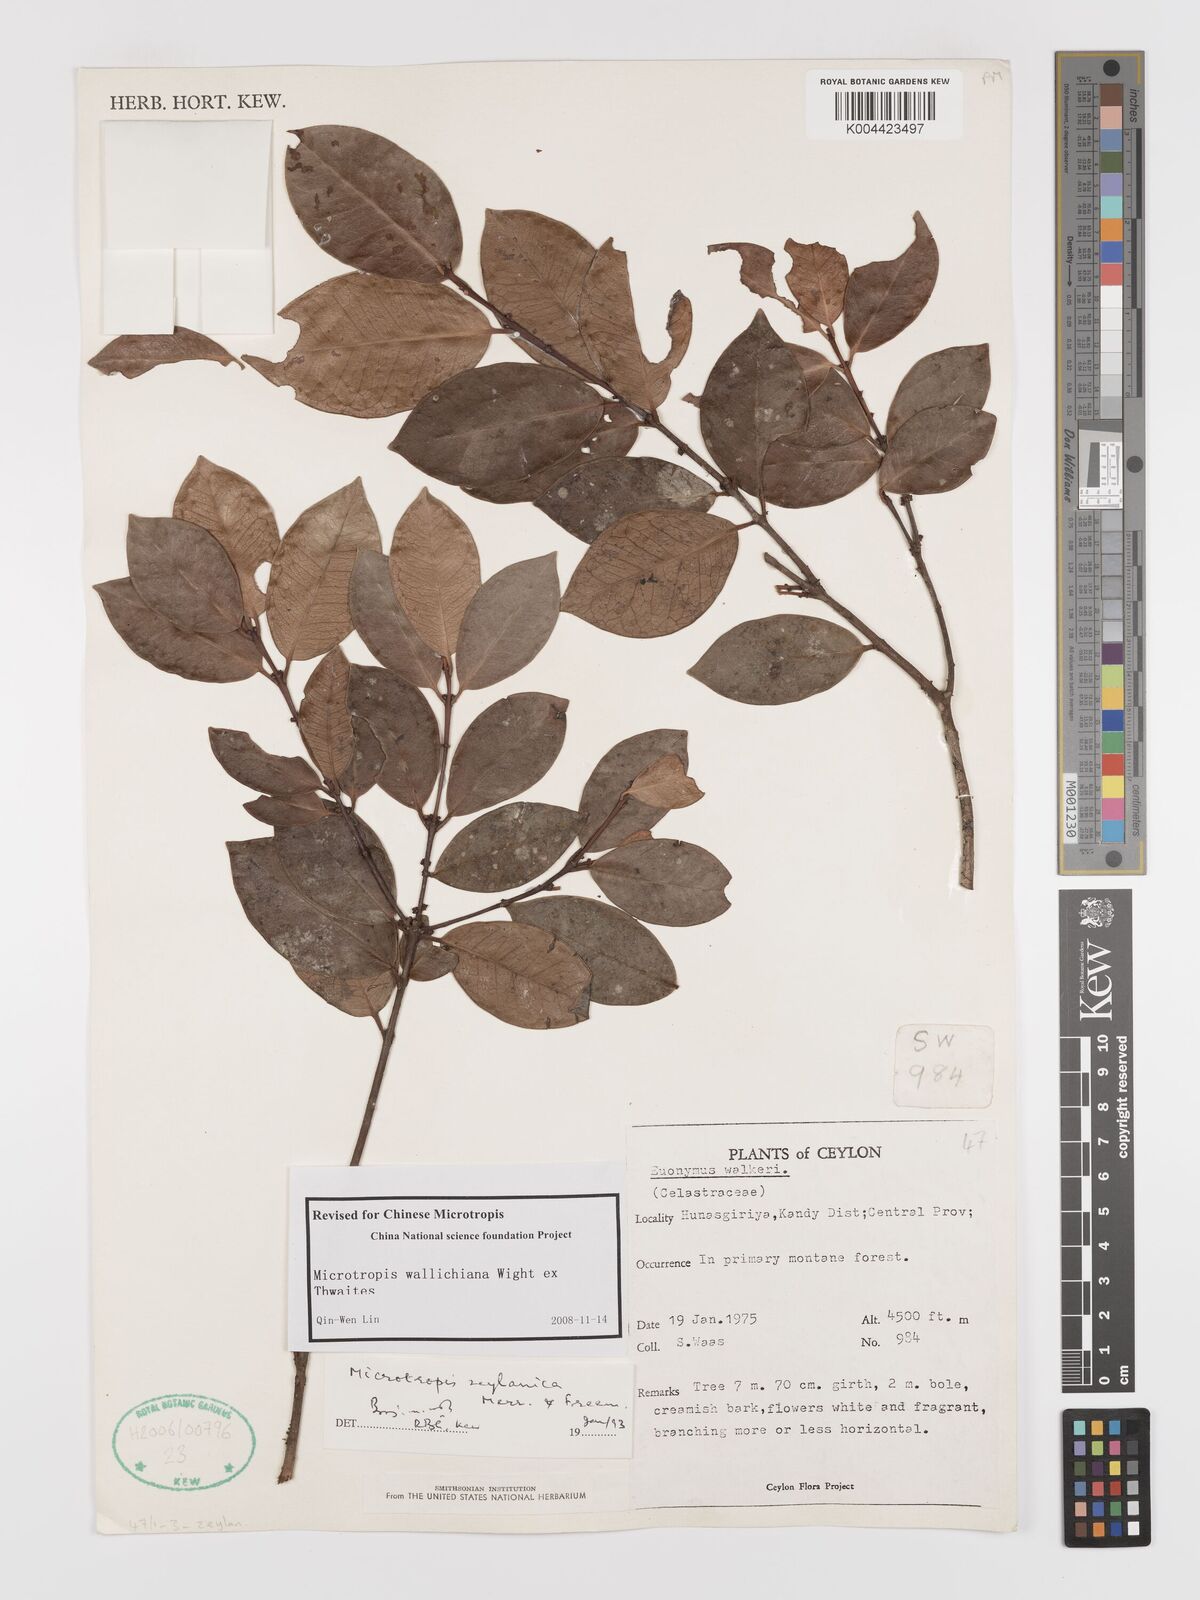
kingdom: Plantae
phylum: Tracheophyta
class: Magnoliopsida
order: Celastrales
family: Celastraceae
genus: Microtropis
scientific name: Microtropis wallichiana
